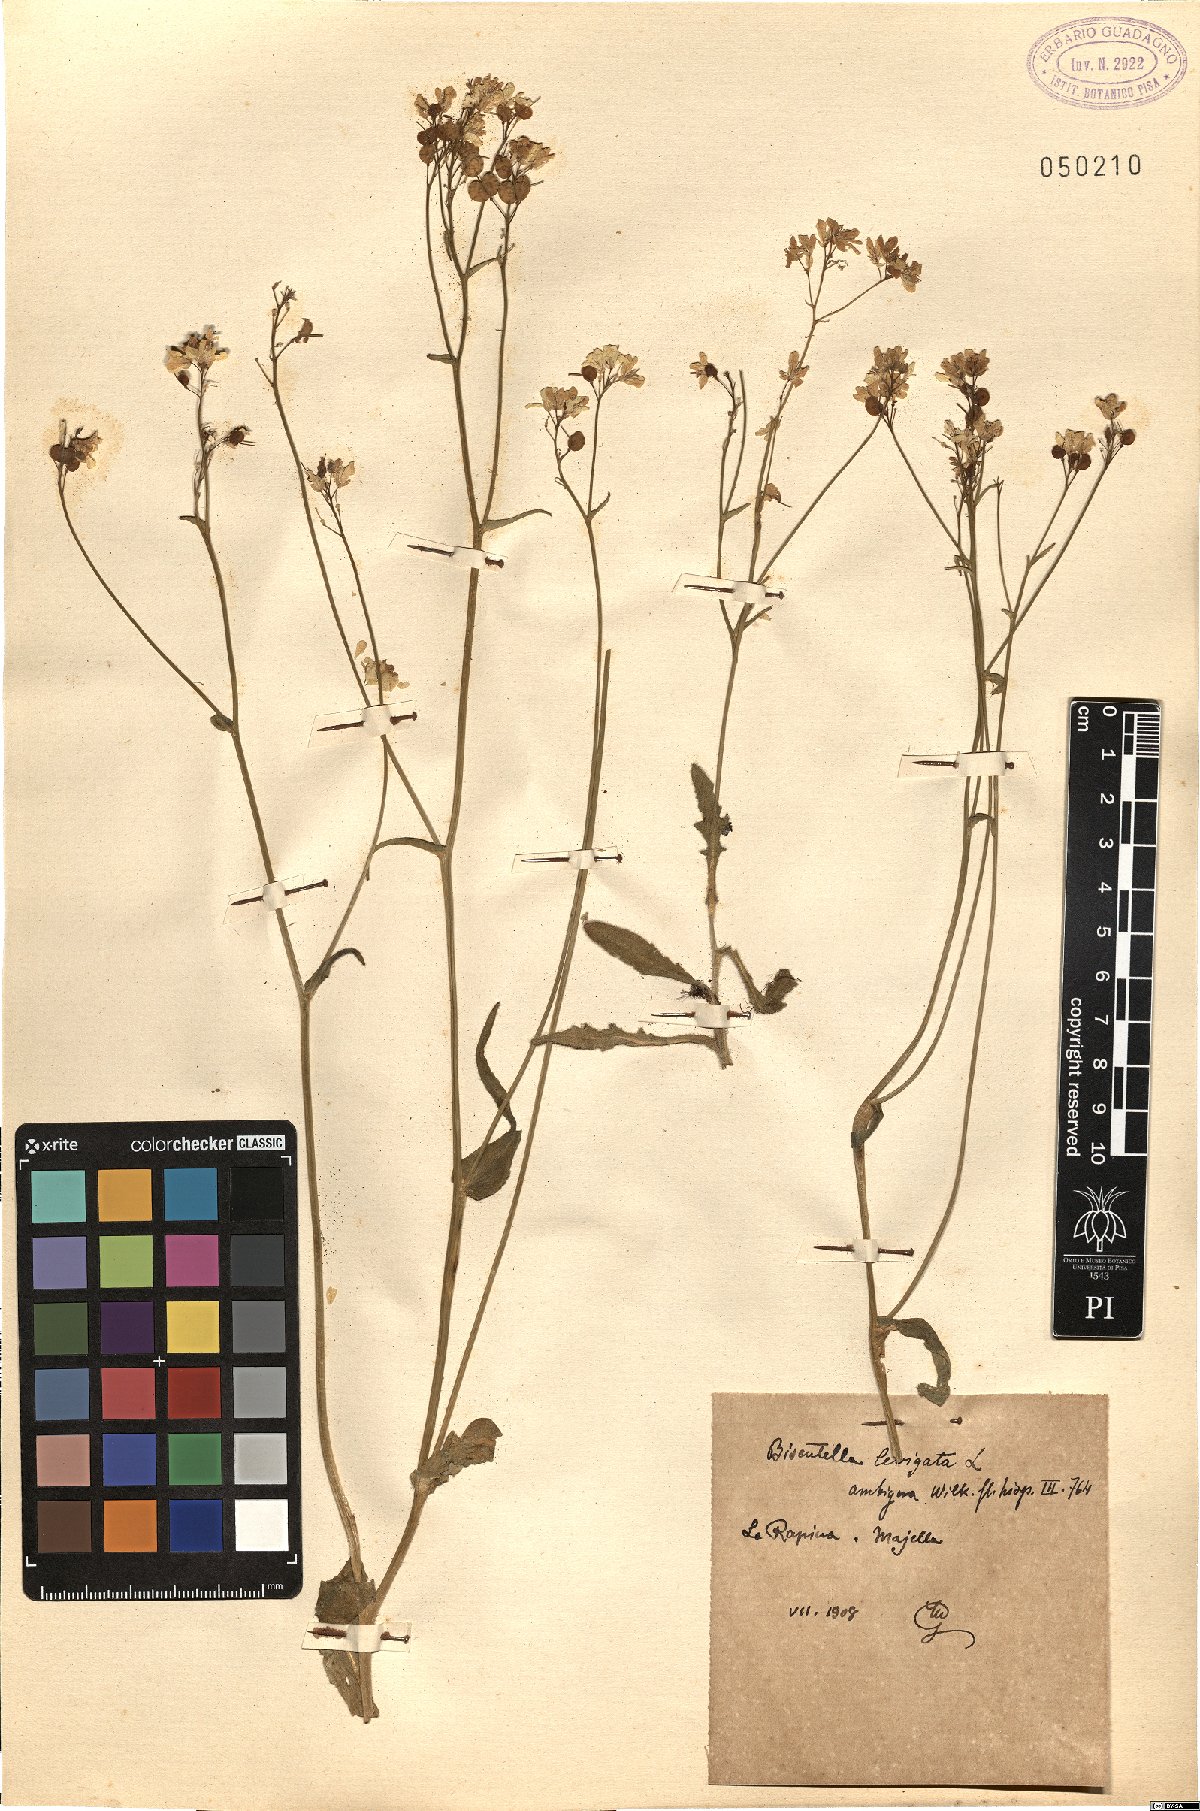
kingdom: Plantae
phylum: Tracheophyta
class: Magnoliopsida
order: Brassicales
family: Brassicaceae
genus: Biscutella
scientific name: Biscutella laevigata
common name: Buckler mustard
